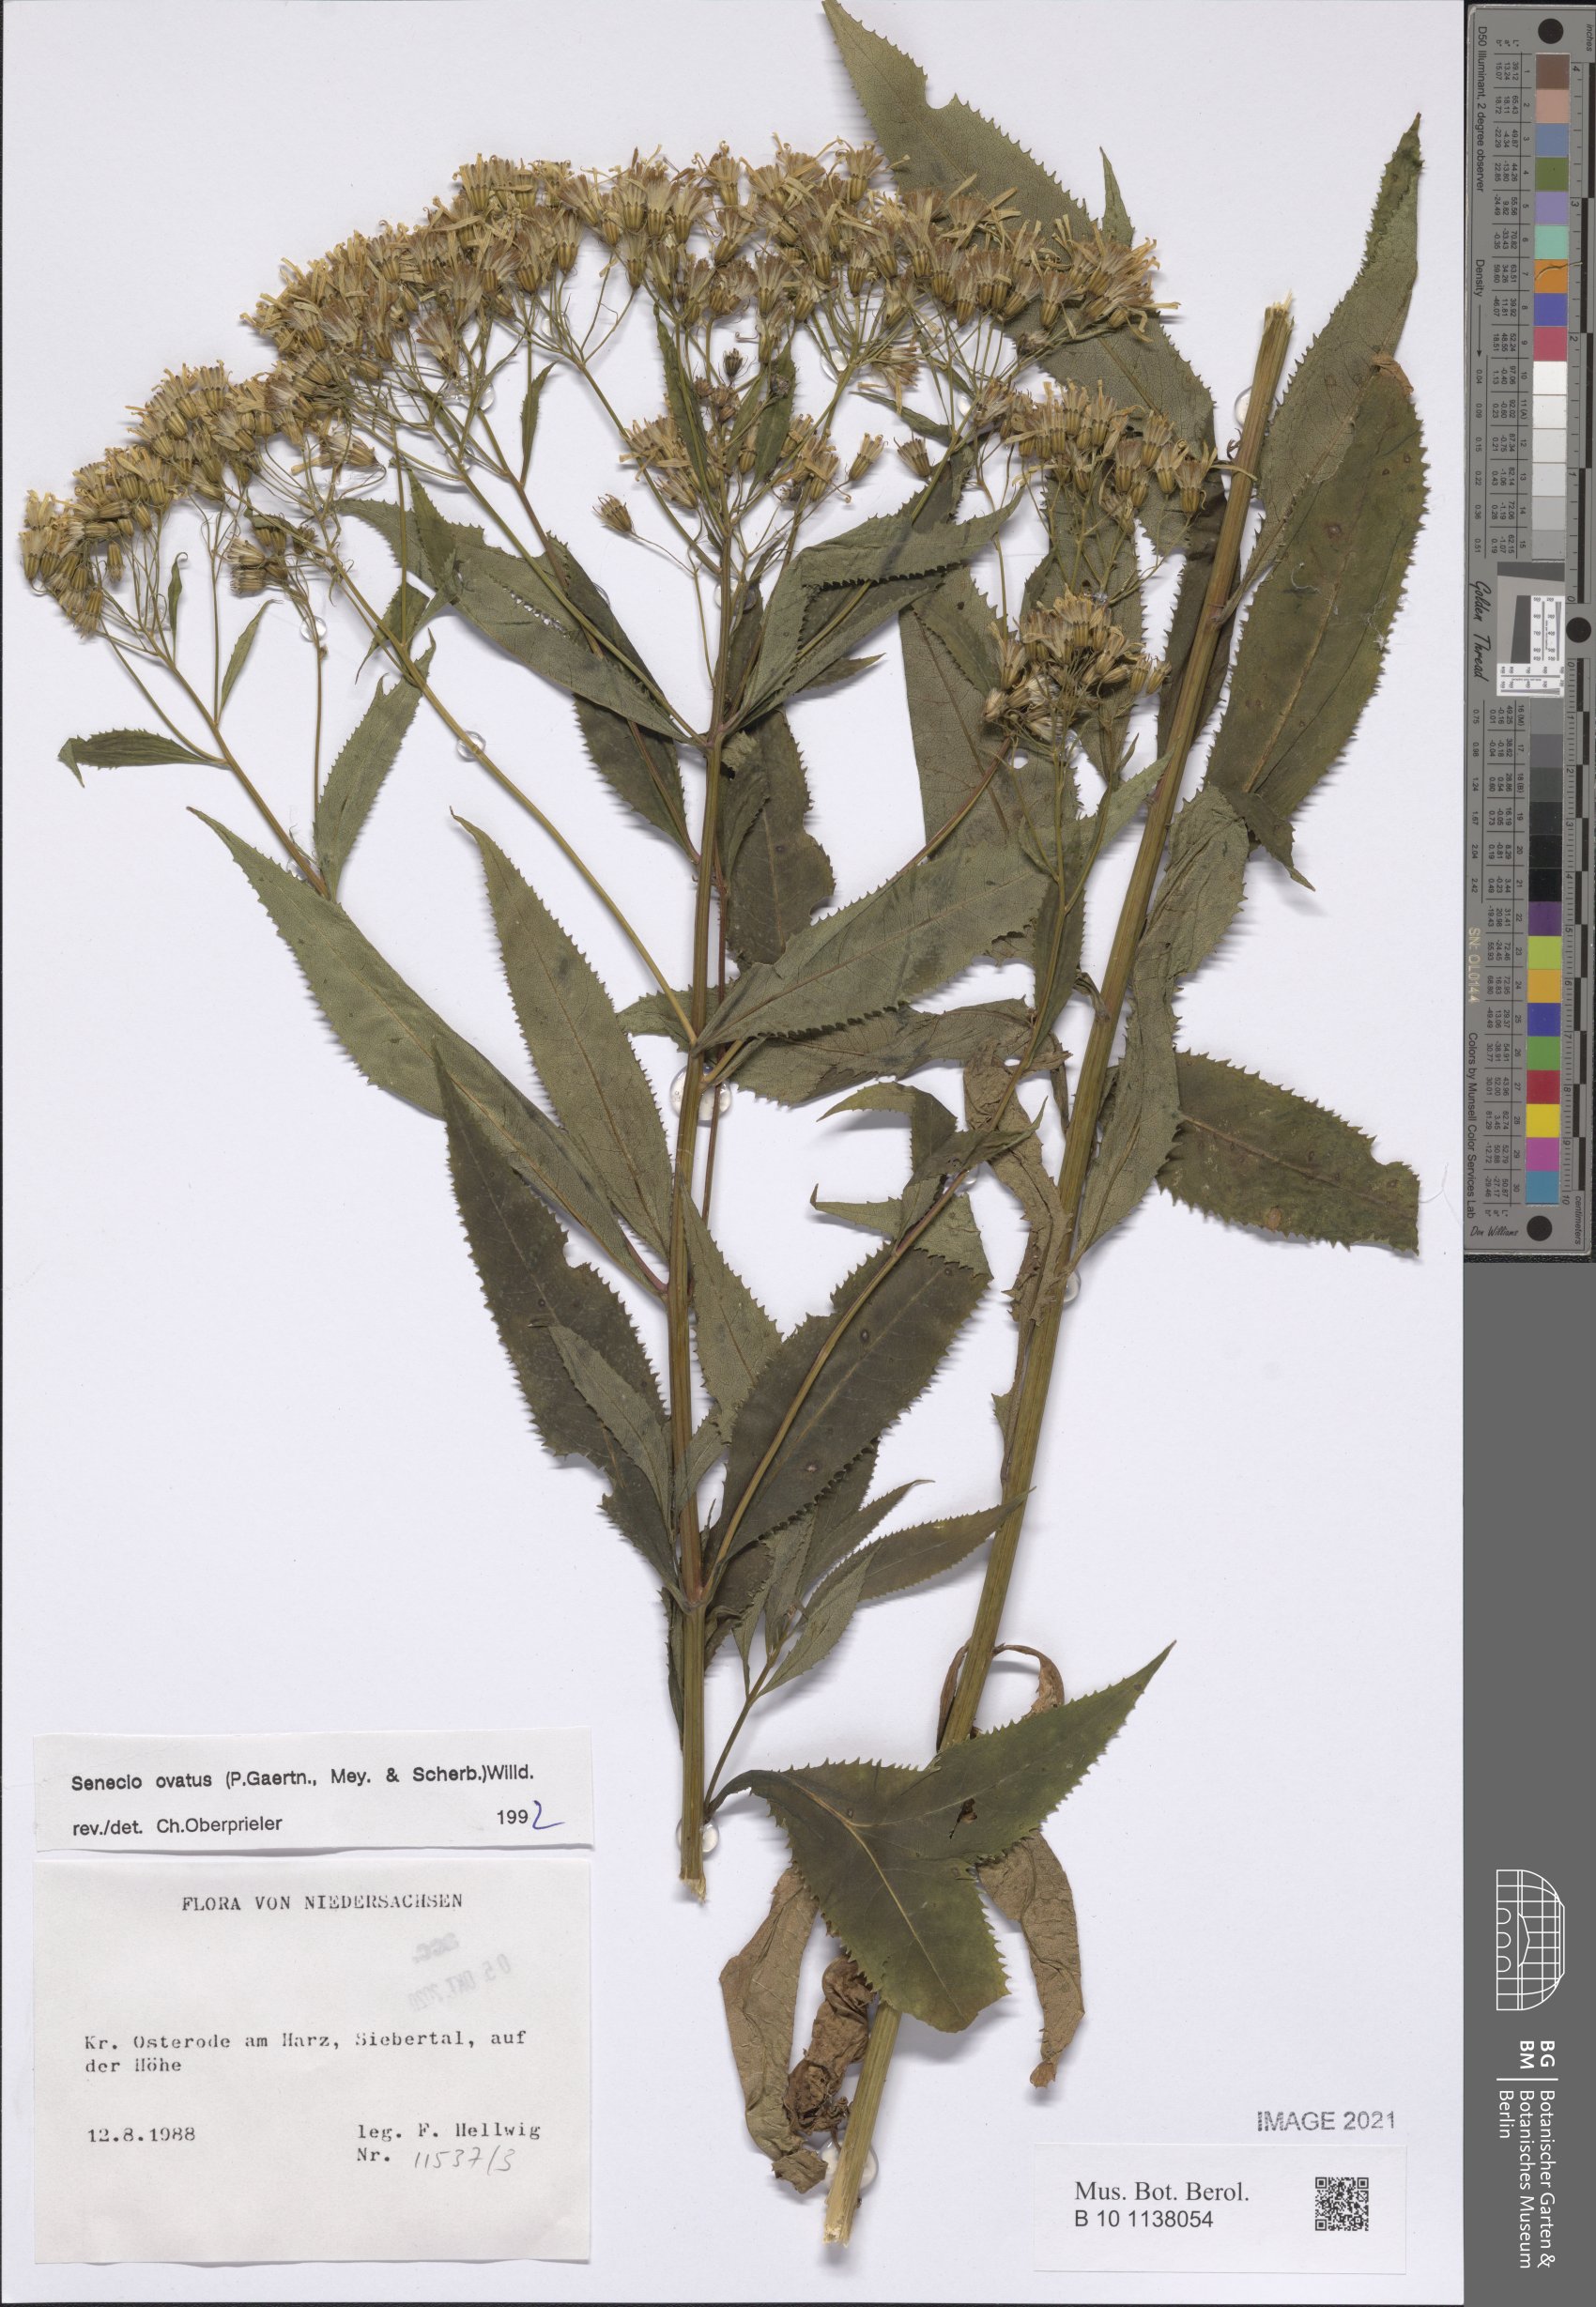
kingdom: Plantae
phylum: Tracheophyta
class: Magnoliopsida
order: Asterales
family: Asteraceae
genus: Senecio
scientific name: Senecio ovatus
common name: Wood ragwort
